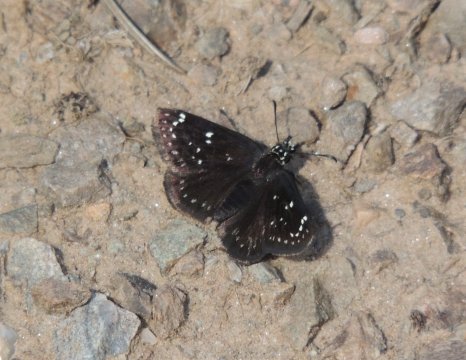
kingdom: Animalia
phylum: Arthropoda
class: Insecta
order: Lepidoptera
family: Hesperiidae
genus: Pholisora
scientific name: Pholisora catullus
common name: Common Sootywing
